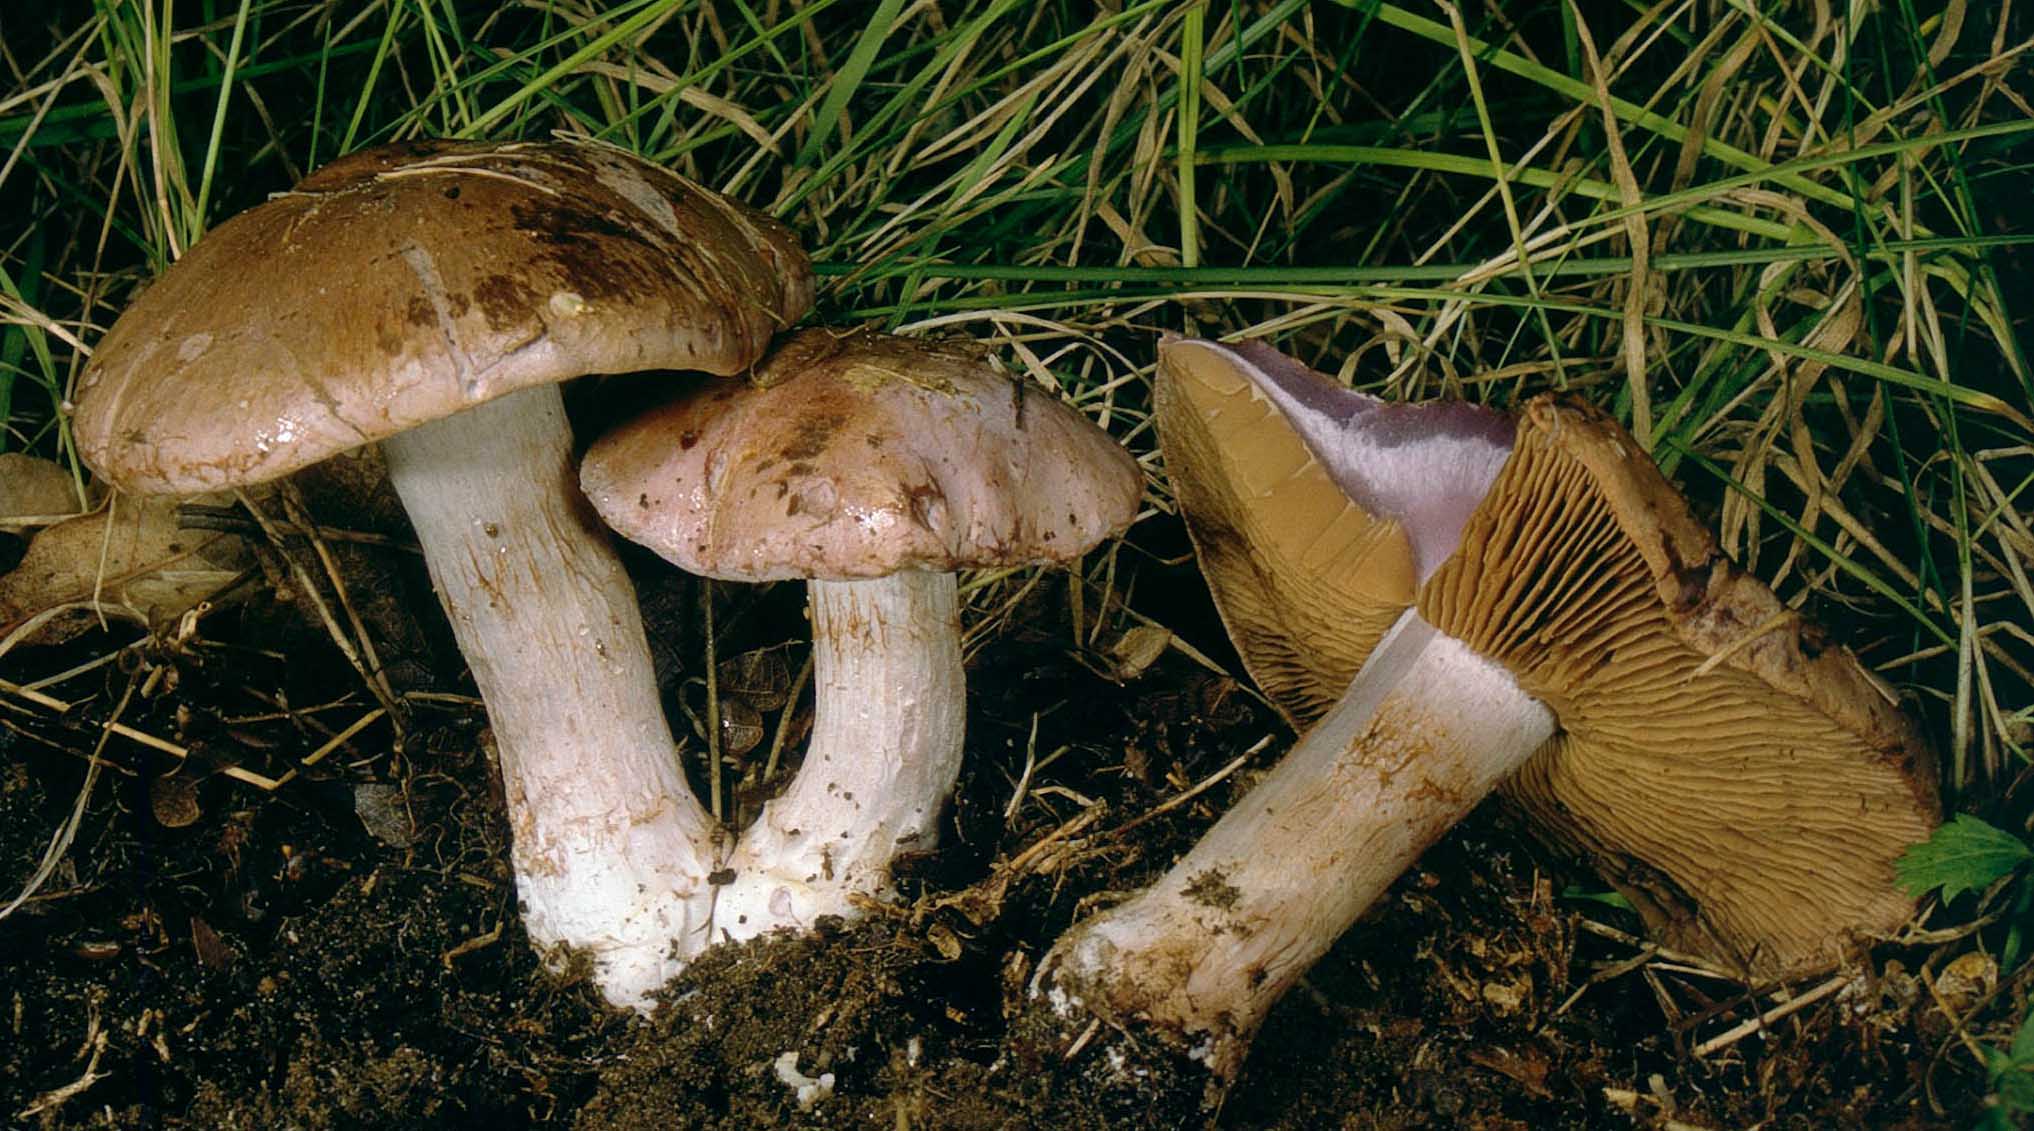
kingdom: Fungi
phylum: Basidiomycota
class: Agaricomycetes
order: Agaricales
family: Cortinariaceae
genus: Cortinarius
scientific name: Cortinarius largus
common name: violetrandet slørhat
